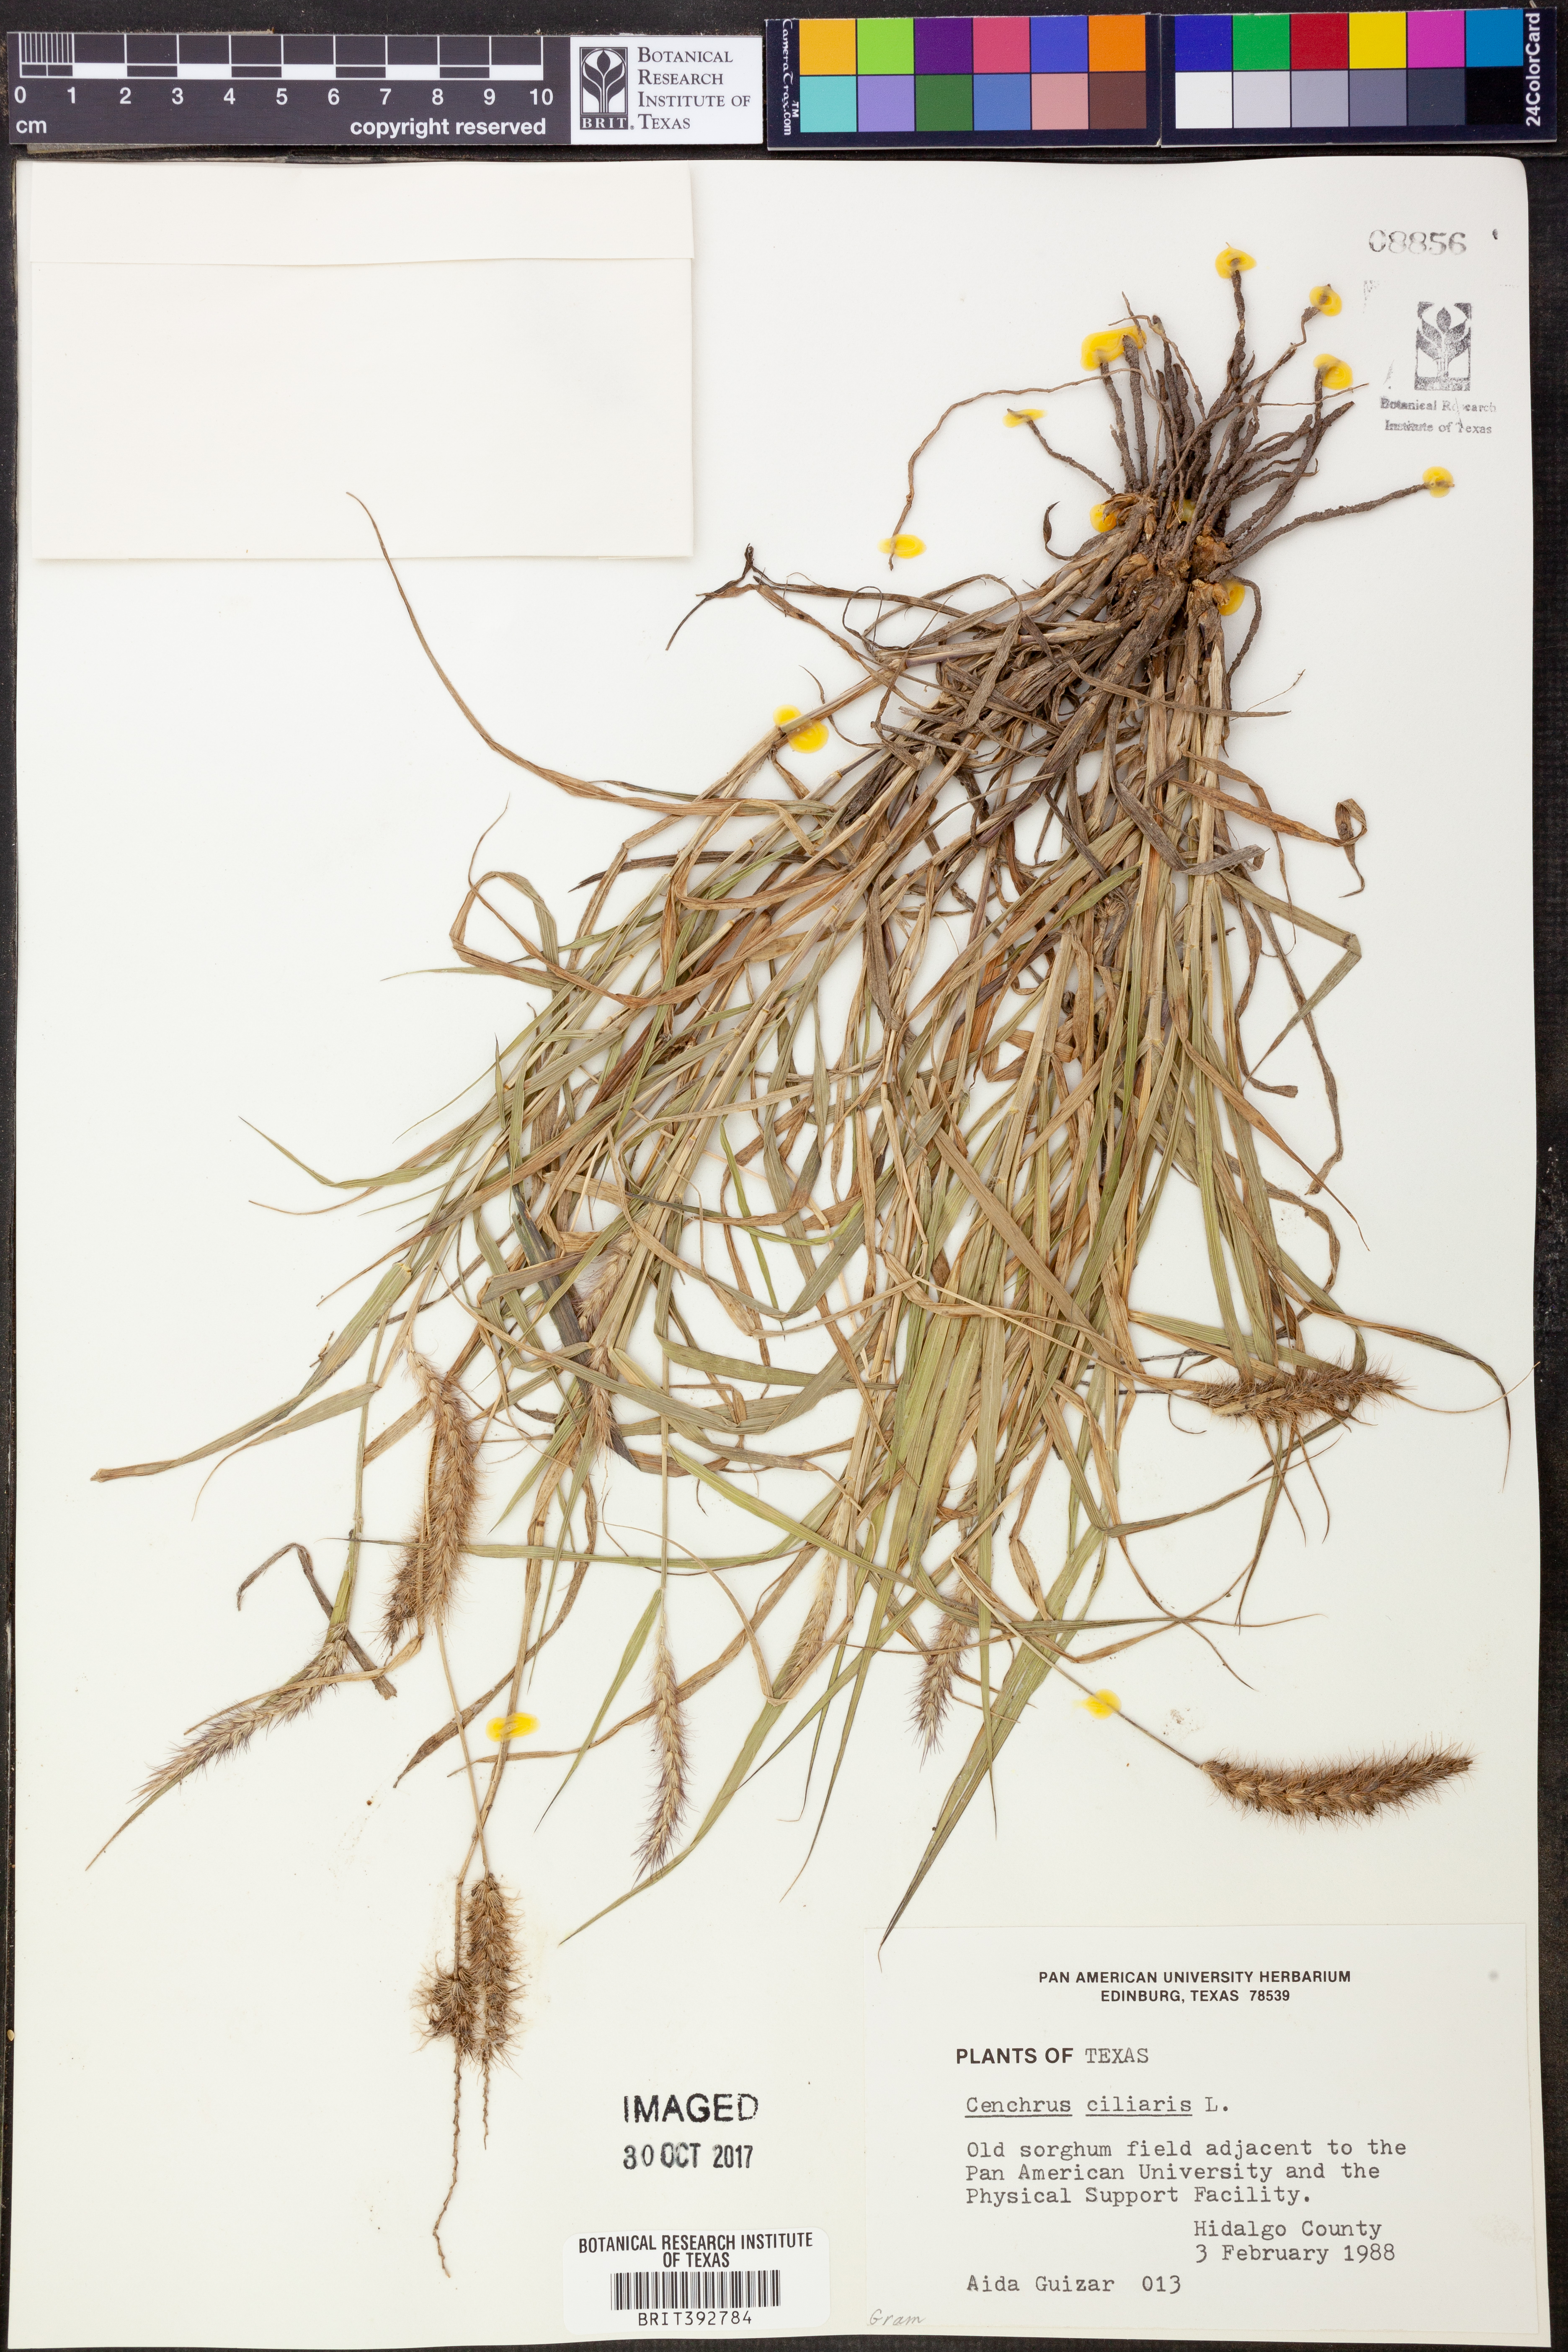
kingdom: Plantae
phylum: Tracheophyta
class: Liliopsida
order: Poales
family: Poaceae
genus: Cenchrus
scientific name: Cenchrus ciliaris
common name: Buffelgrass
